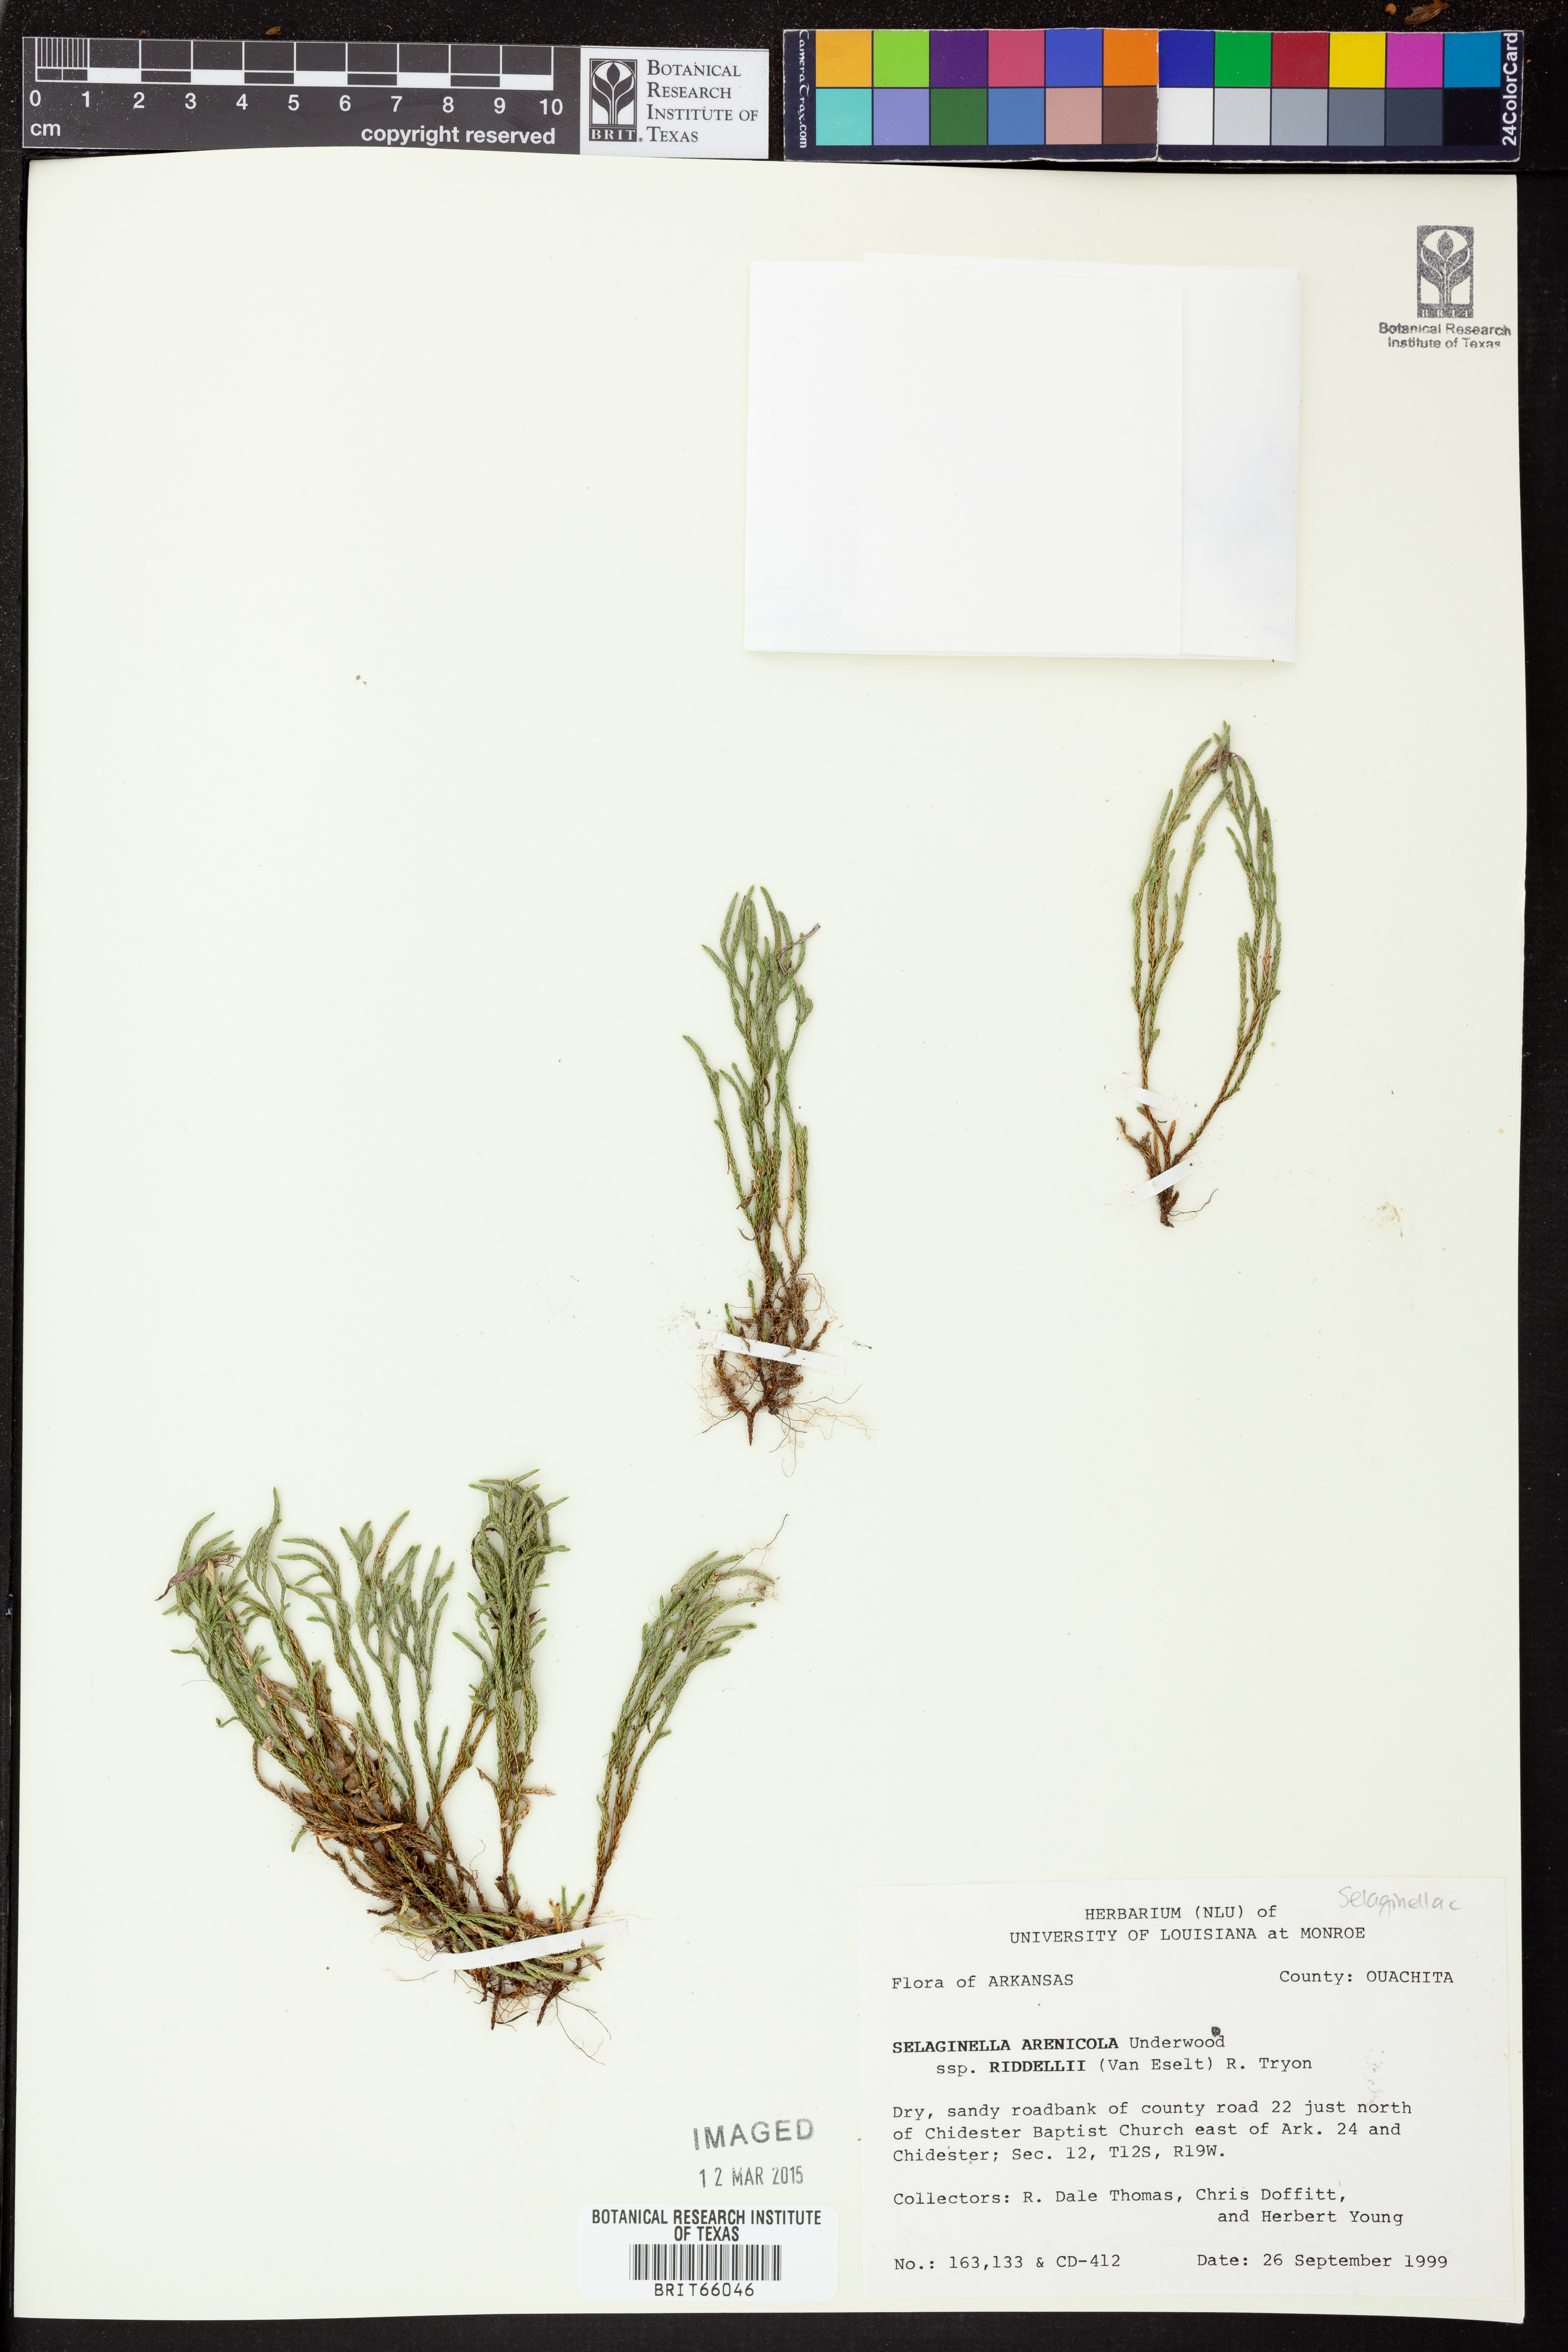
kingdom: Plantae
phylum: Tracheophyta
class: Lycopodiopsida
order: Selaginellales
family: Selaginellaceae
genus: Selaginella
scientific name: Selaginella corallina
